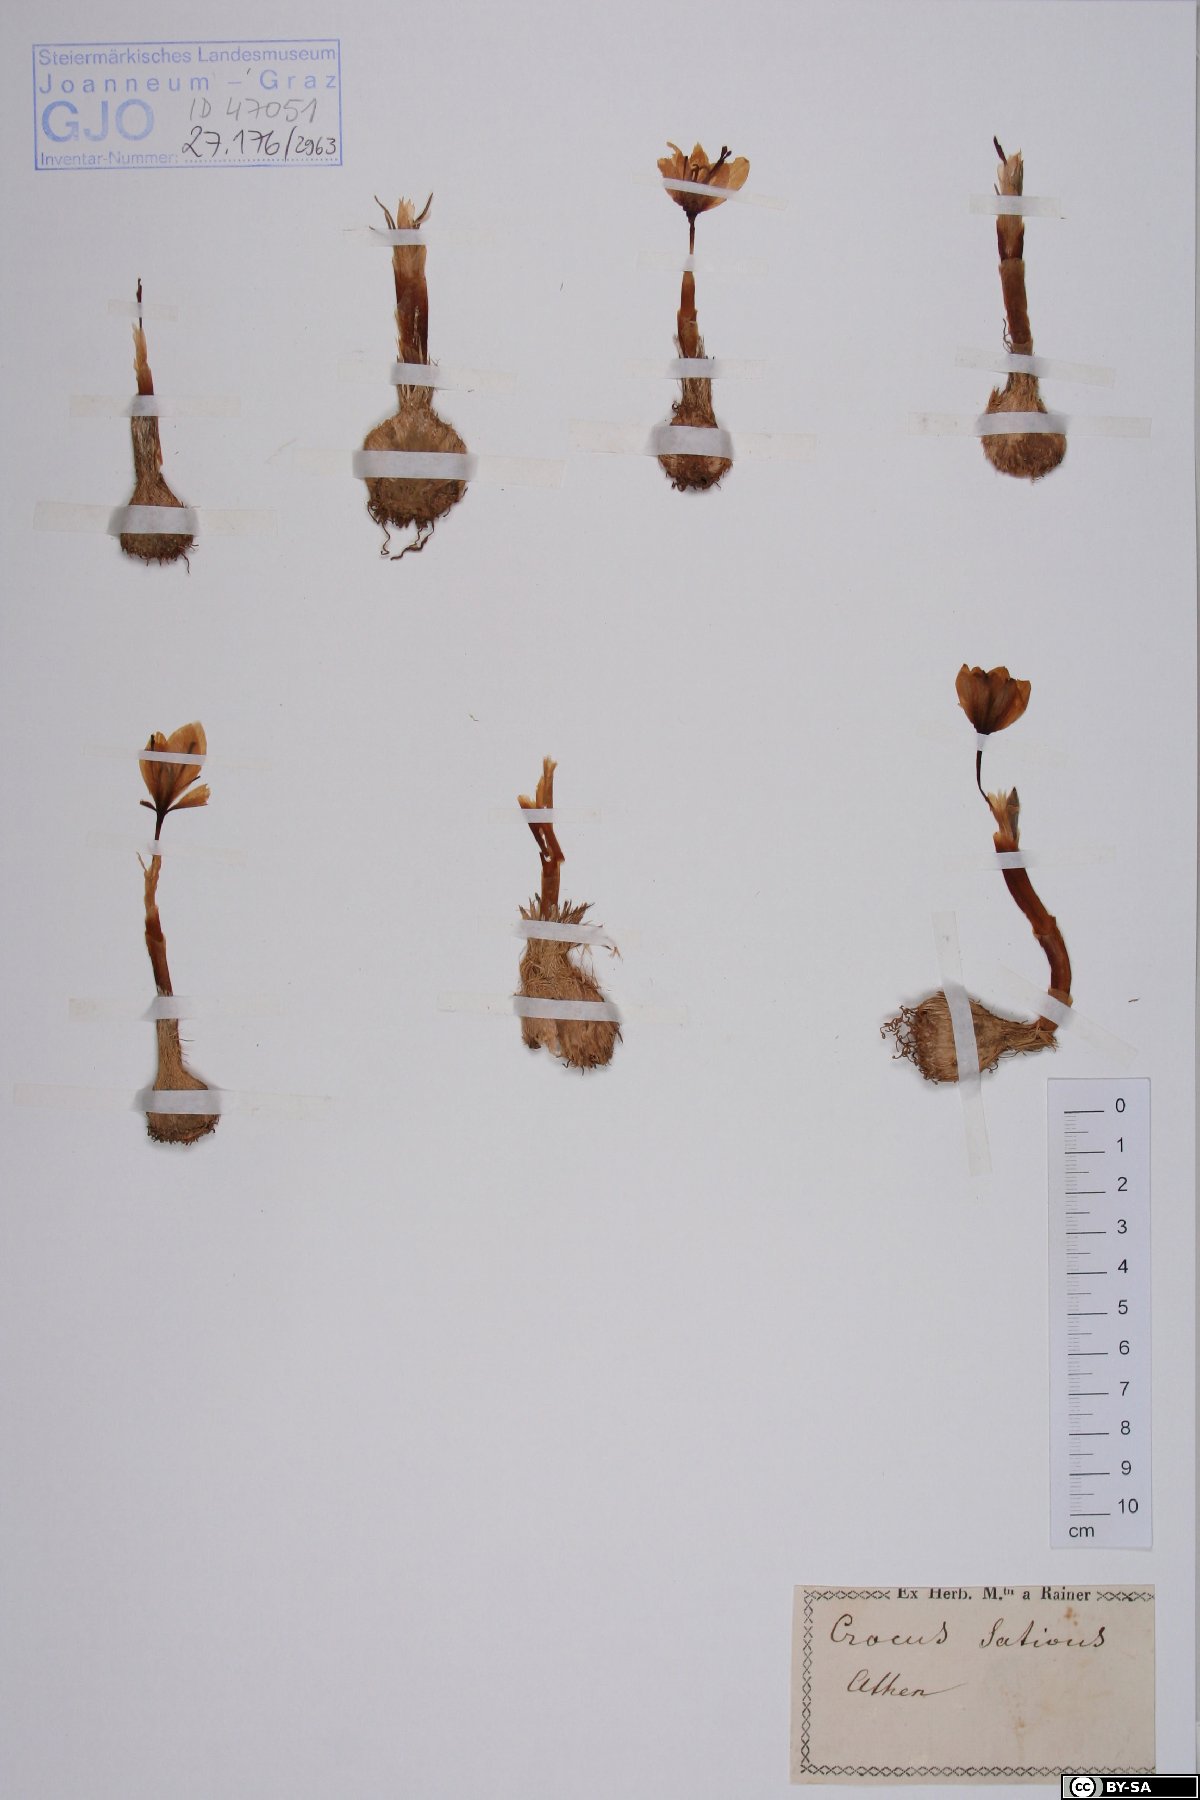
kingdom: Plantae
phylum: Tracheophyta
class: Liliopsida
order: Asparagales
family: Iridaceae
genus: Crocus
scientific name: Crocus sativus
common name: Saffron crocus
